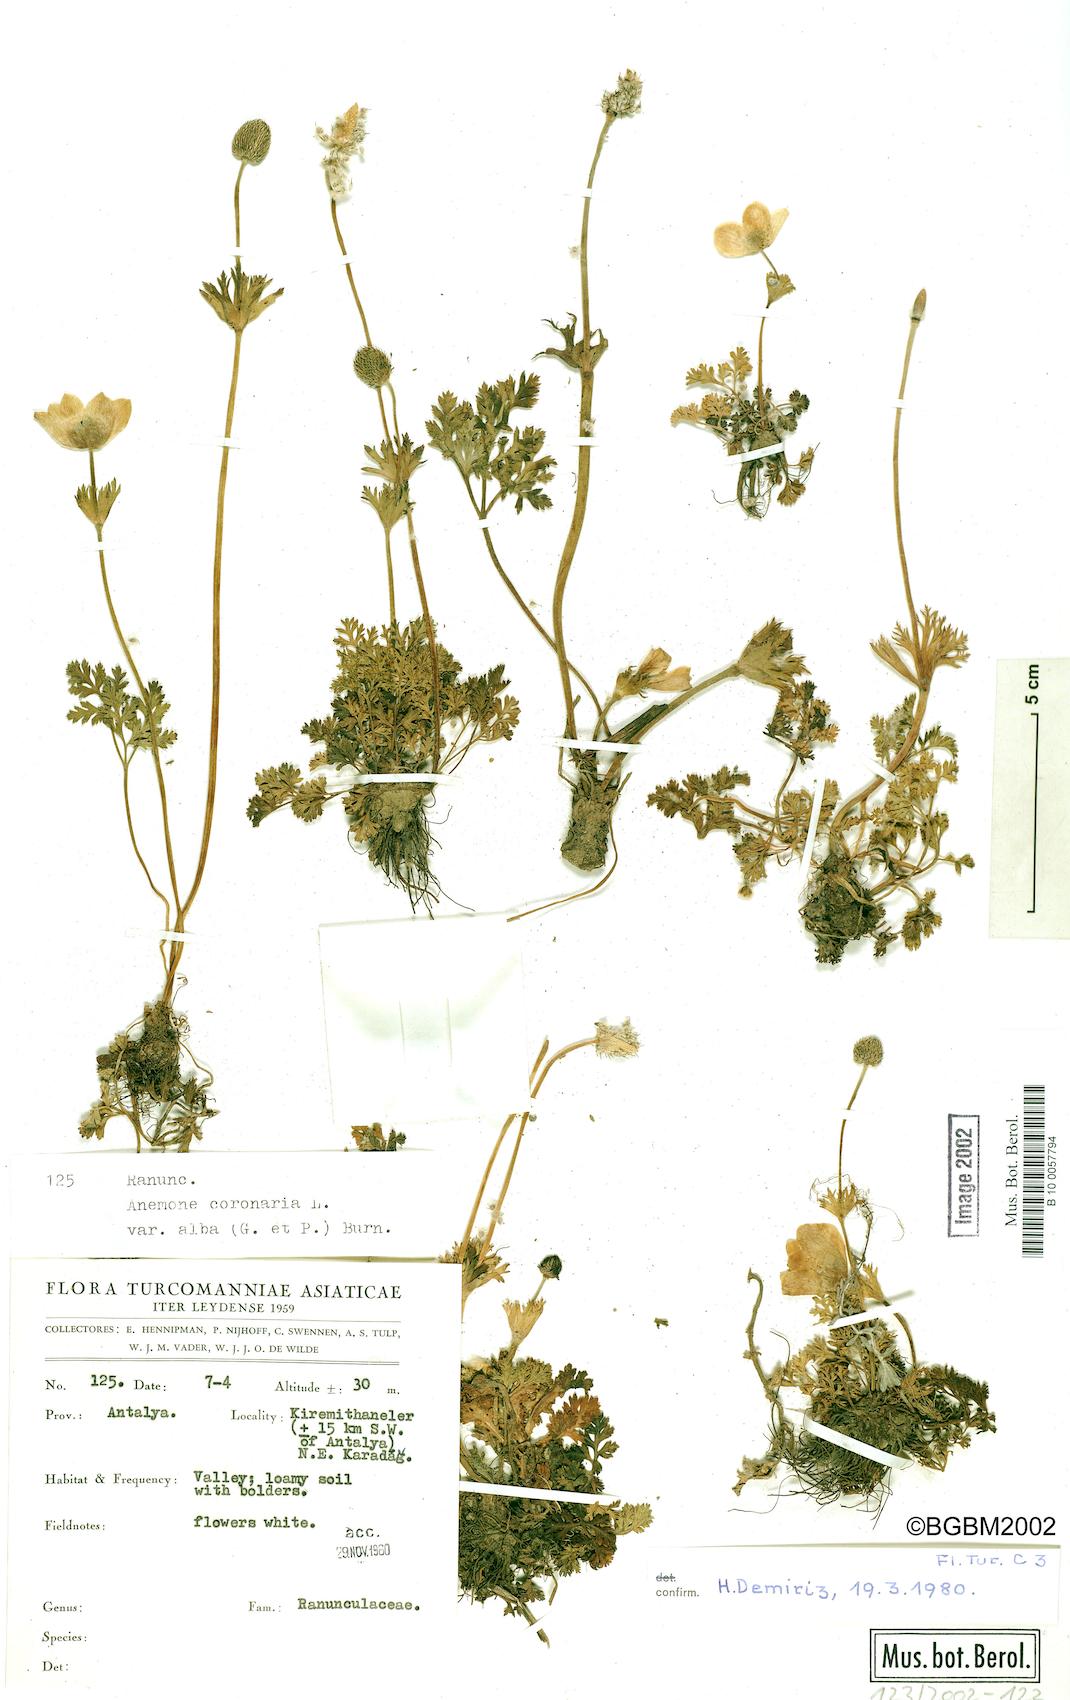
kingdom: Plantae
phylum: Tracheophyta
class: Magnoliopsida
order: Ranunculales
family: Ranunculaceae
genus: Anemone
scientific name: Anemone coronaria
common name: Poppy anemone
